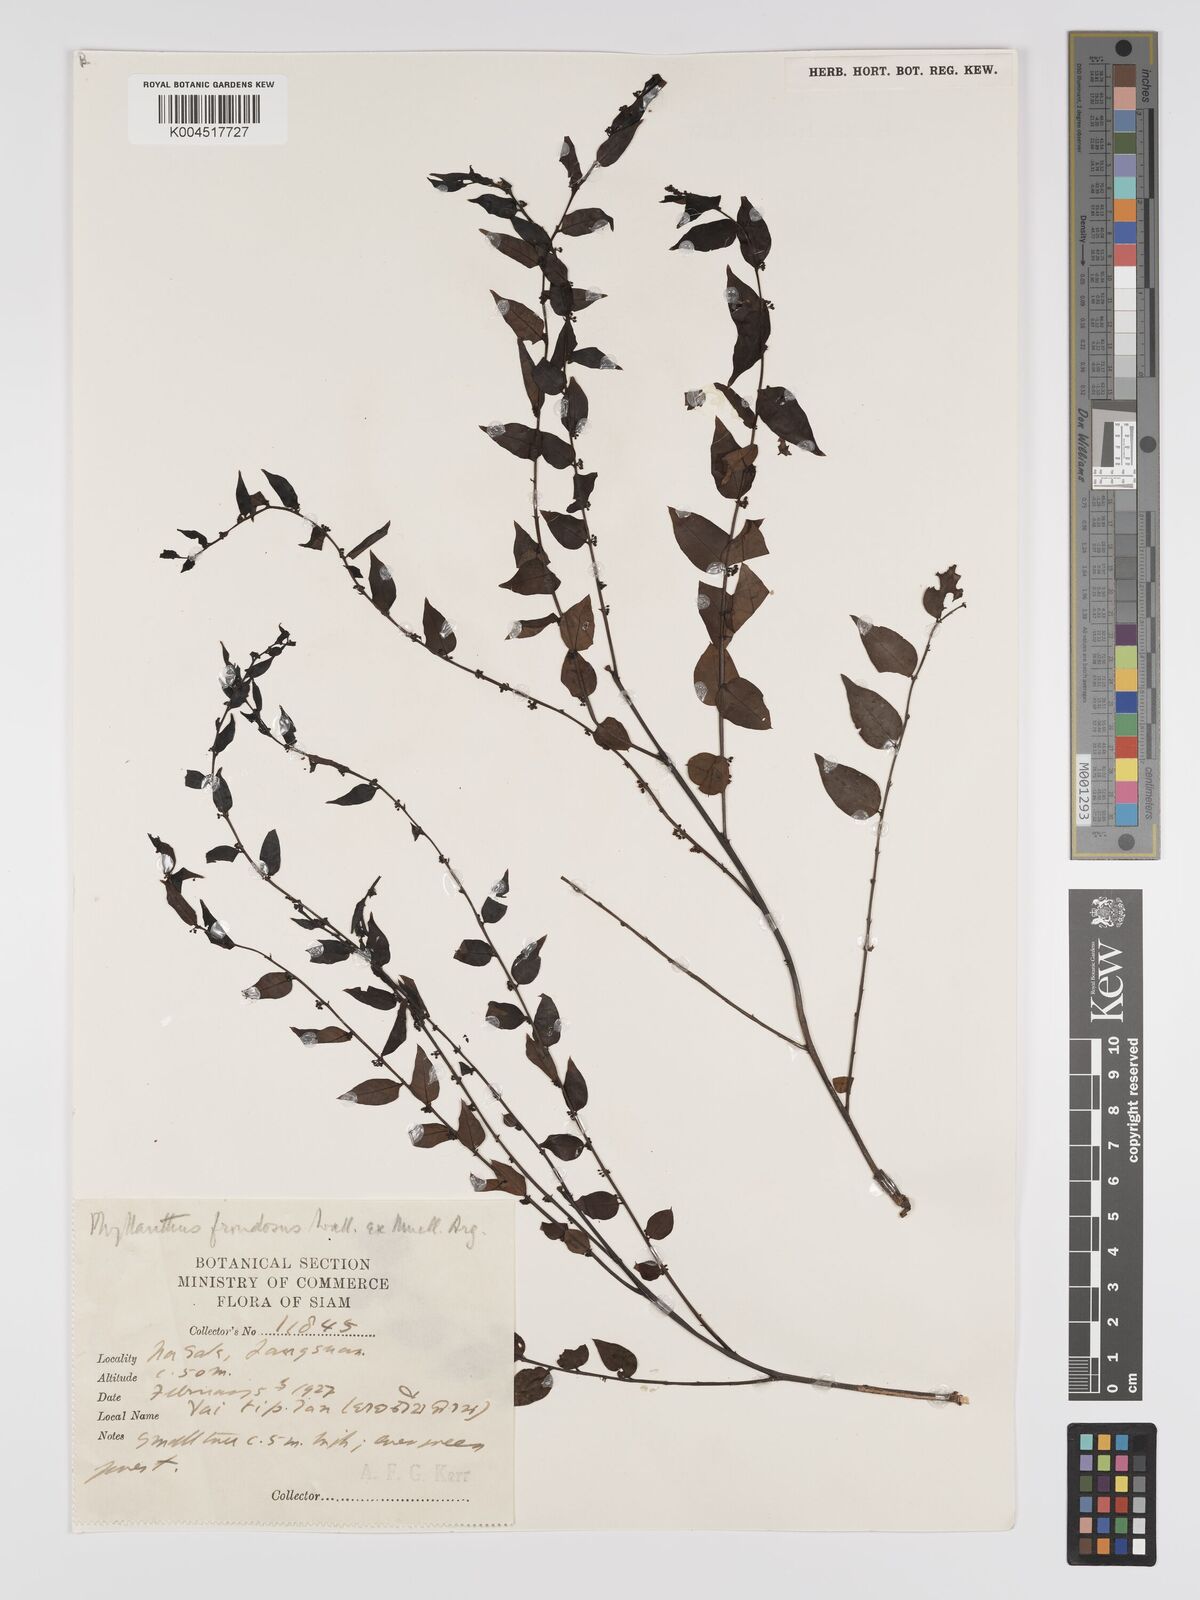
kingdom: Plantae
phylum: Tracheophyta
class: Magnoliopsida
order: Malpighiales
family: Phyllanthaceae
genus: Phyllanthus
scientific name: Phyllanthus
